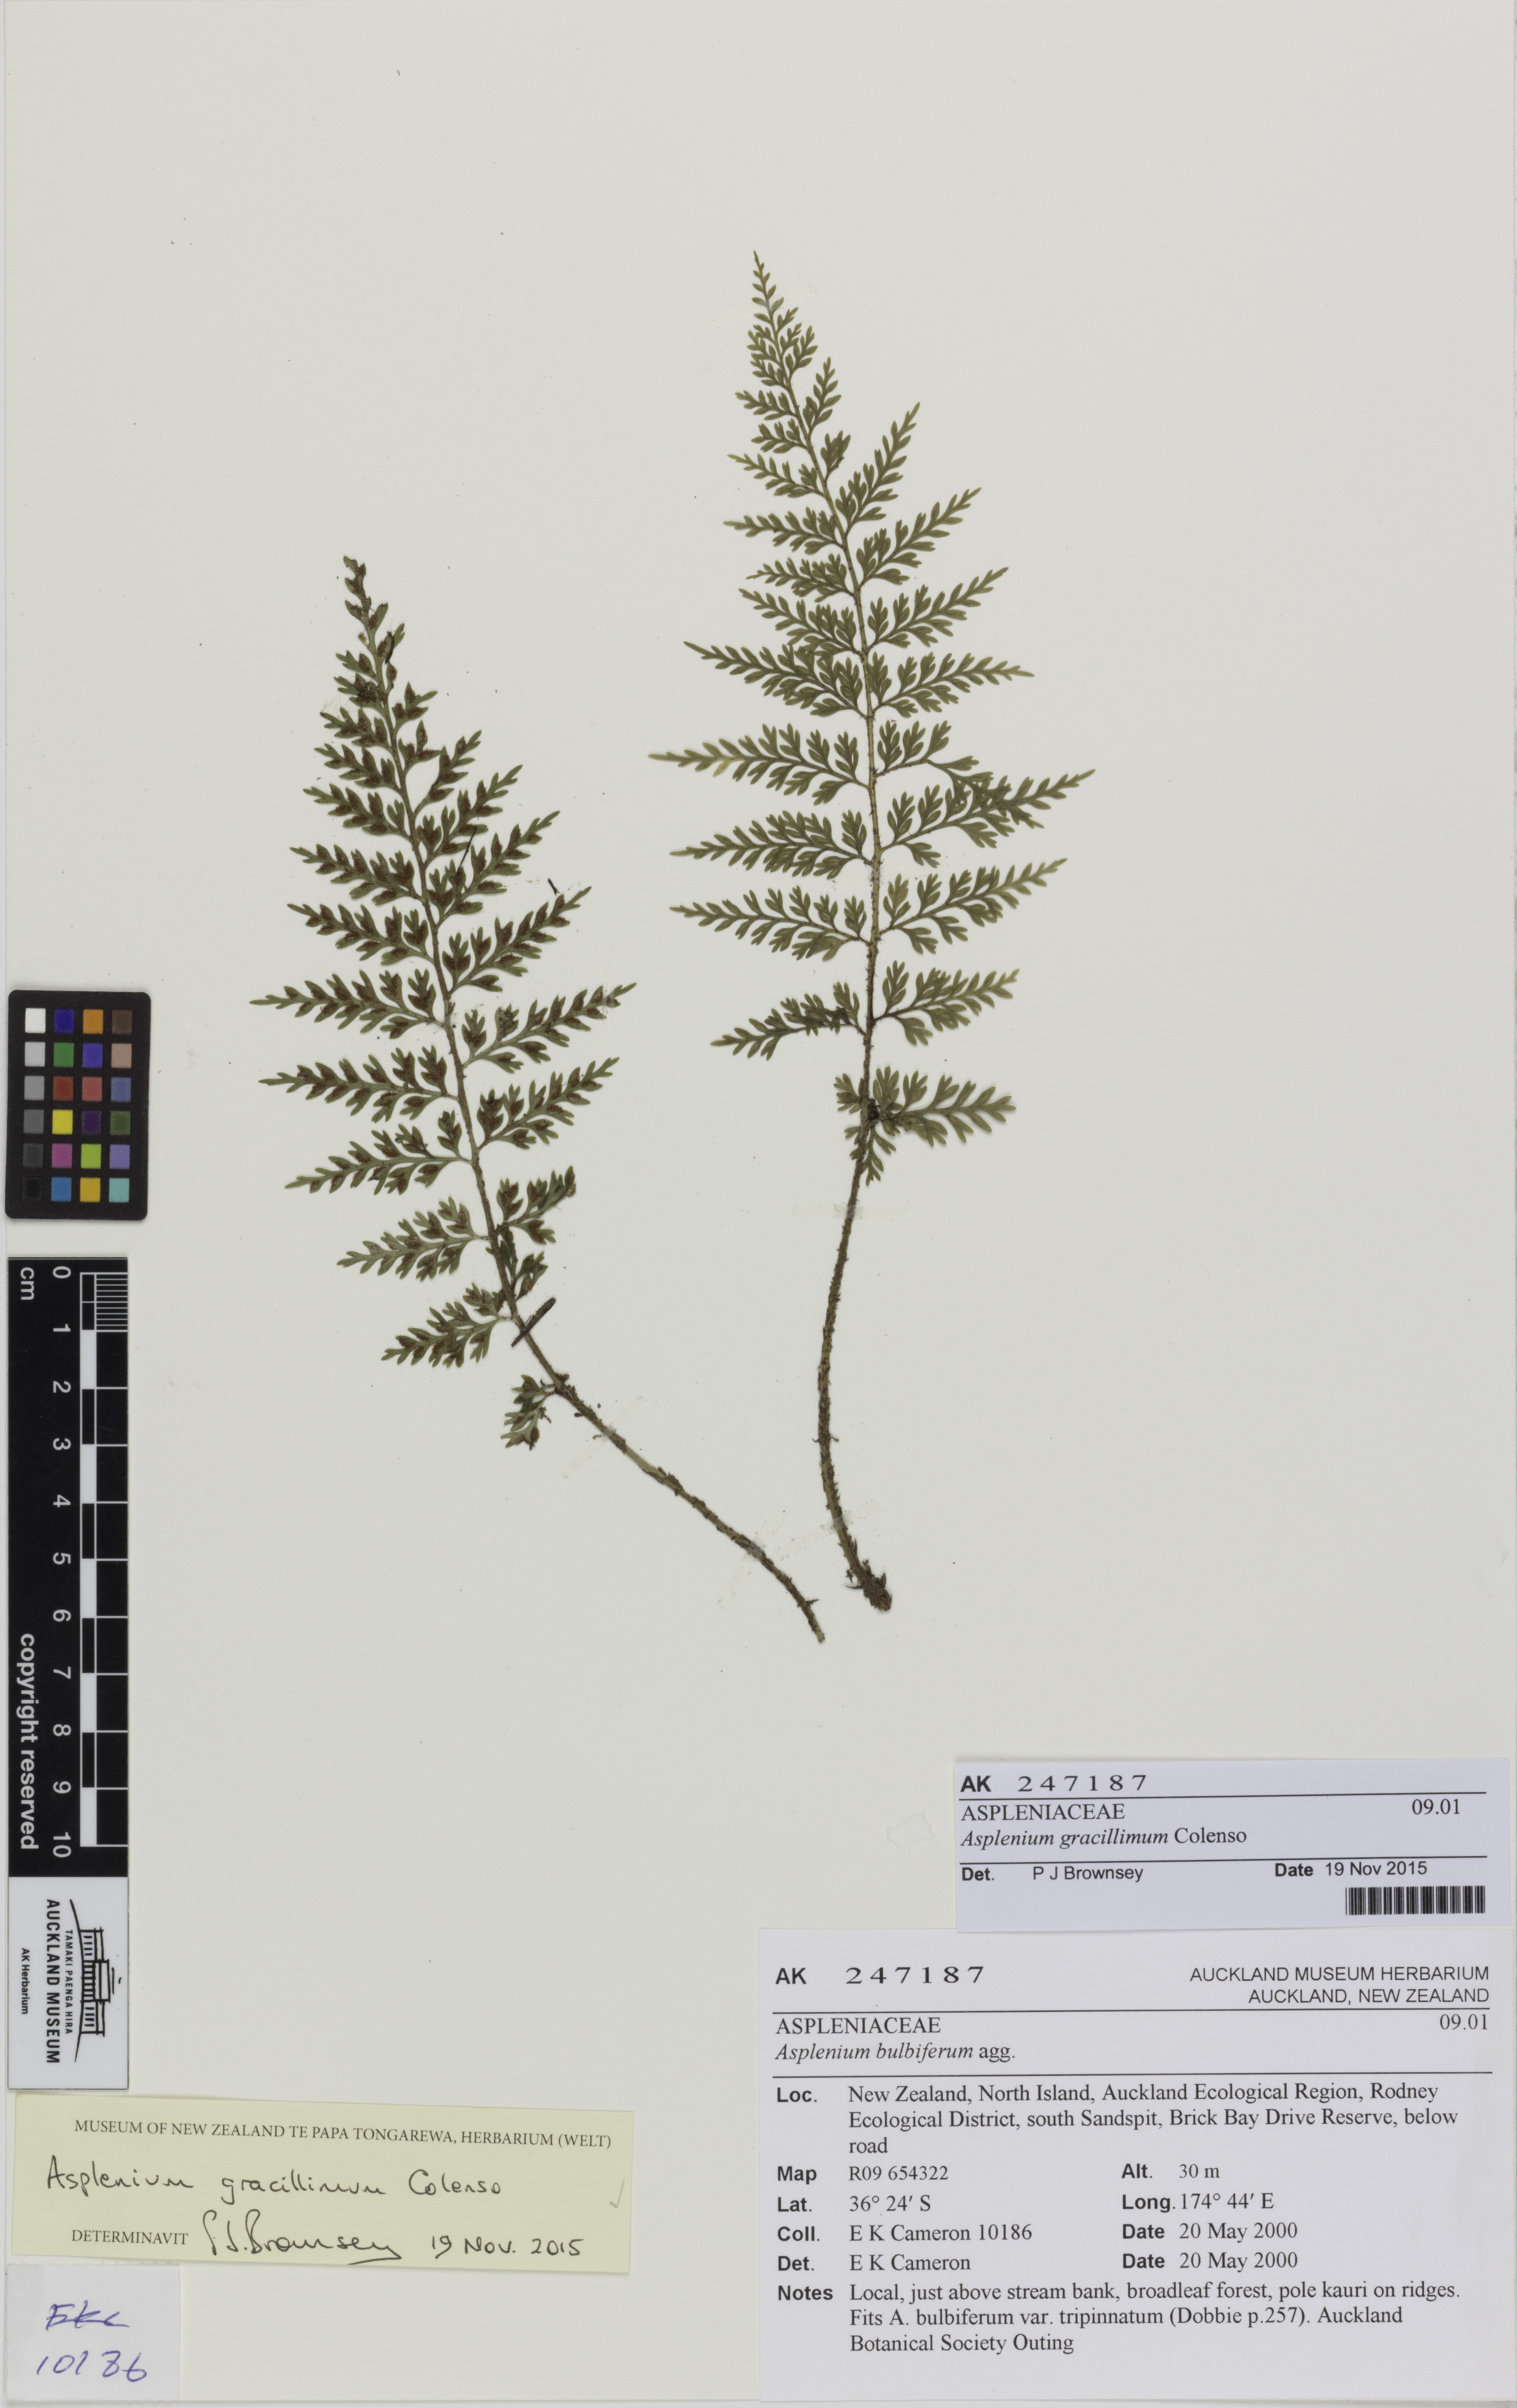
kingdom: Plantae
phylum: Tracheophyta
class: Polypodiopsida
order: Polypodiales
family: Aspleniaceae
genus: Asplenium
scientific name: Asplenium bulbiferum
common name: Mother fern
